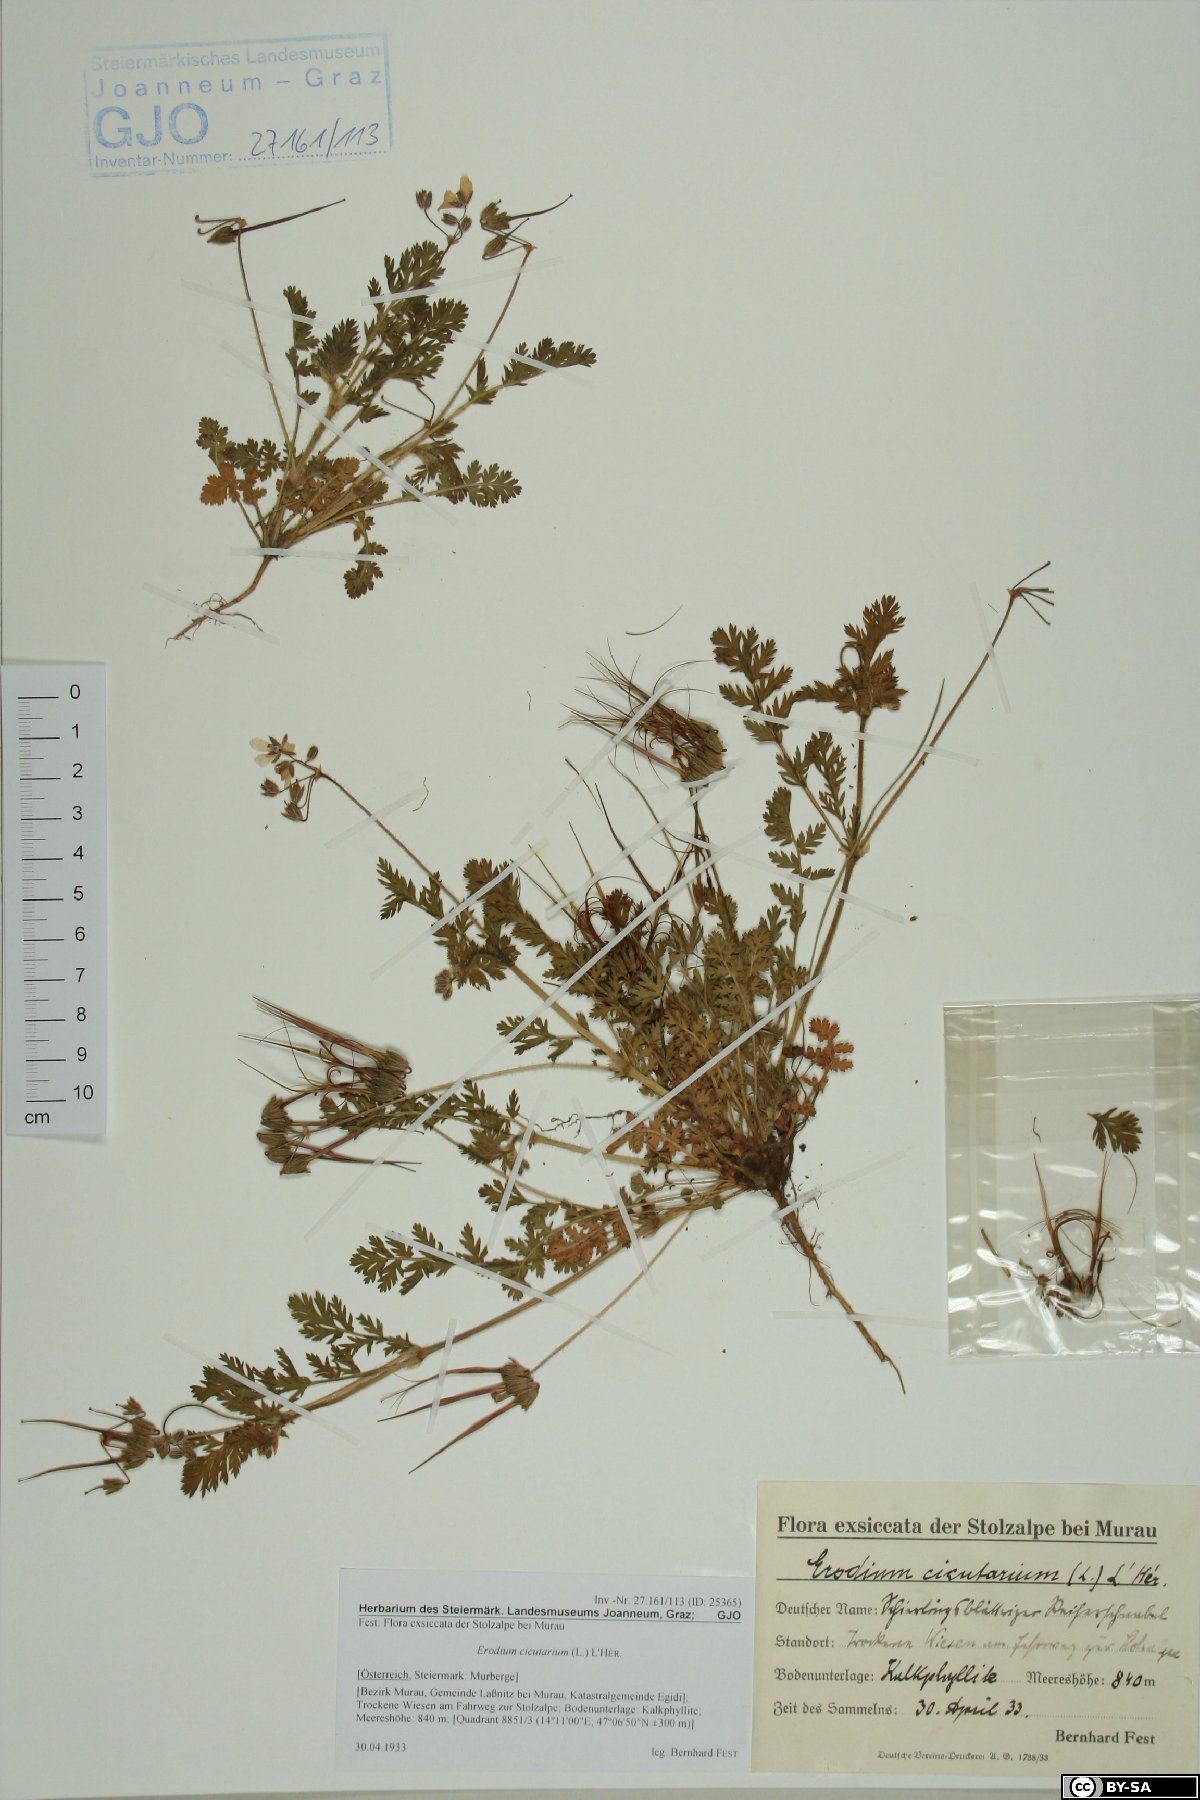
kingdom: Plantae
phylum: Tracheophyta
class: Magnoliopsida
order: Geraniales
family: Geraniaceae
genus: Erodium
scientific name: Erodium cicutarium
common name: Common stork's-bill
